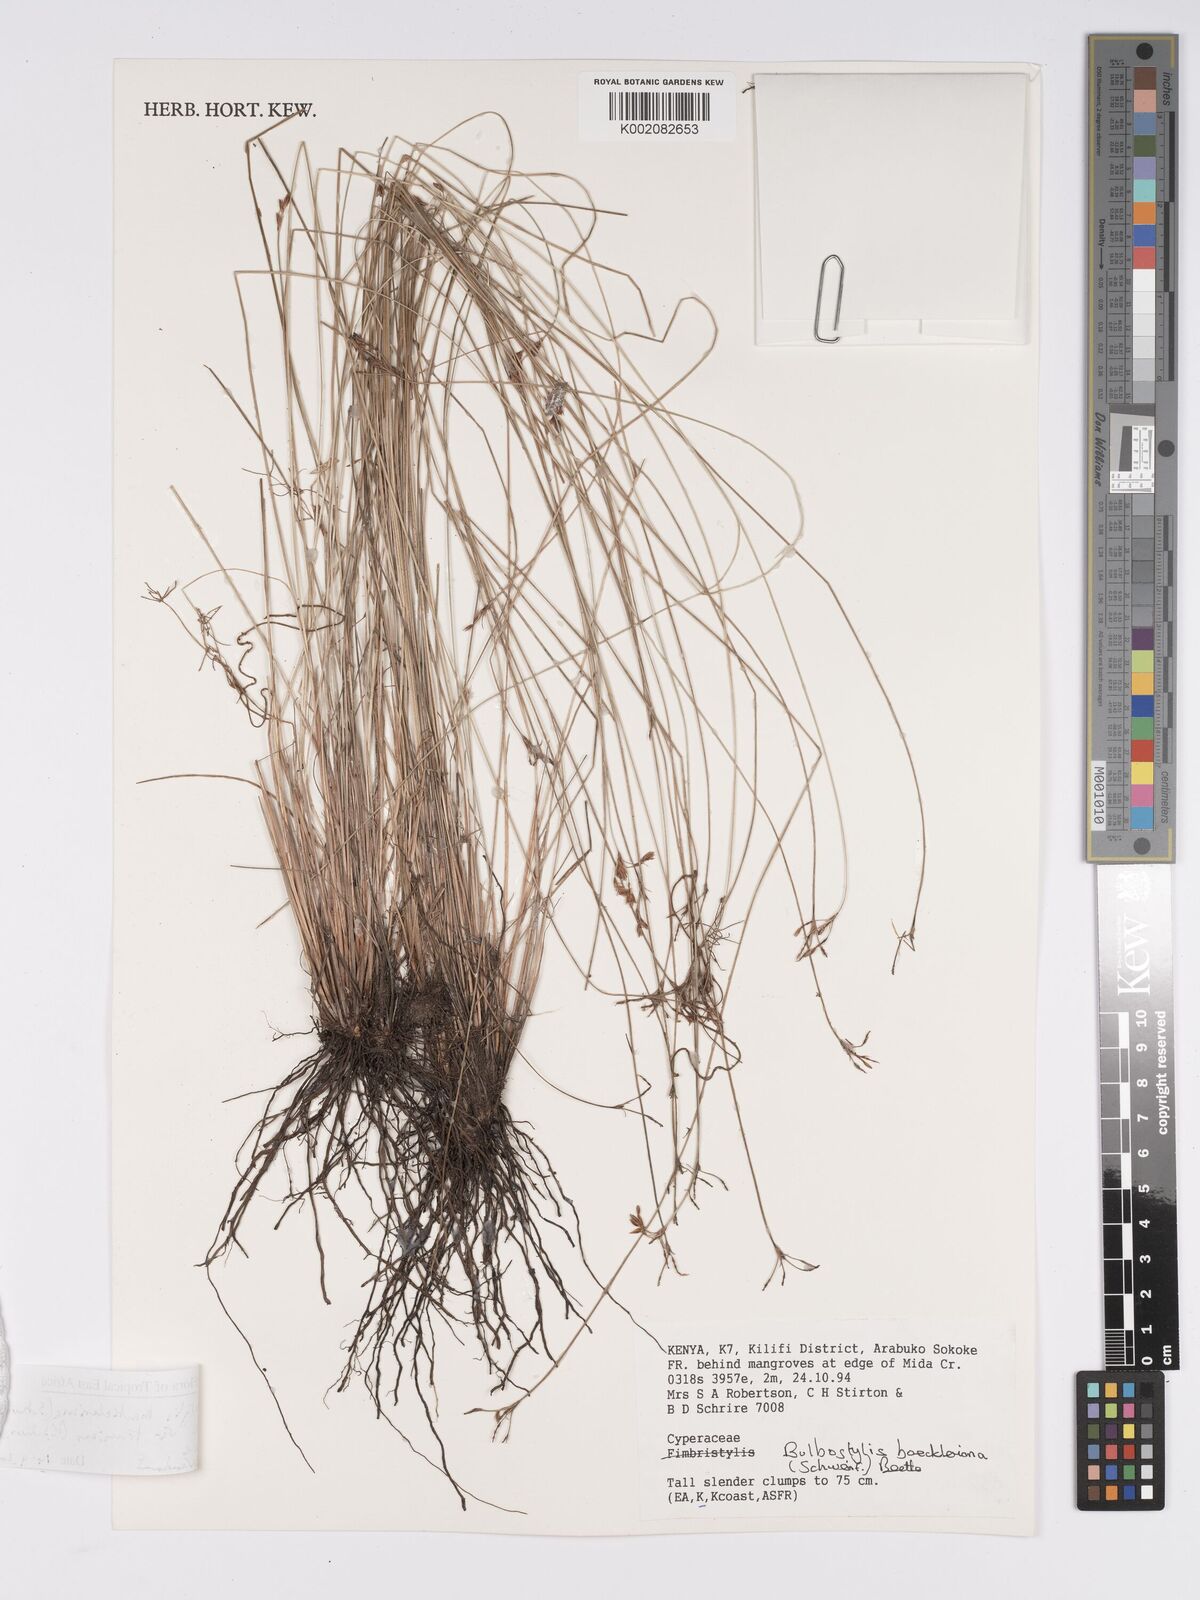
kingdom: Plantae
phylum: Tracheophyta
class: Liliopsida
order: Poales
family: Cyperaceae
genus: Bulbostylis
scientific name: Bulbostylis boeckeleriana
